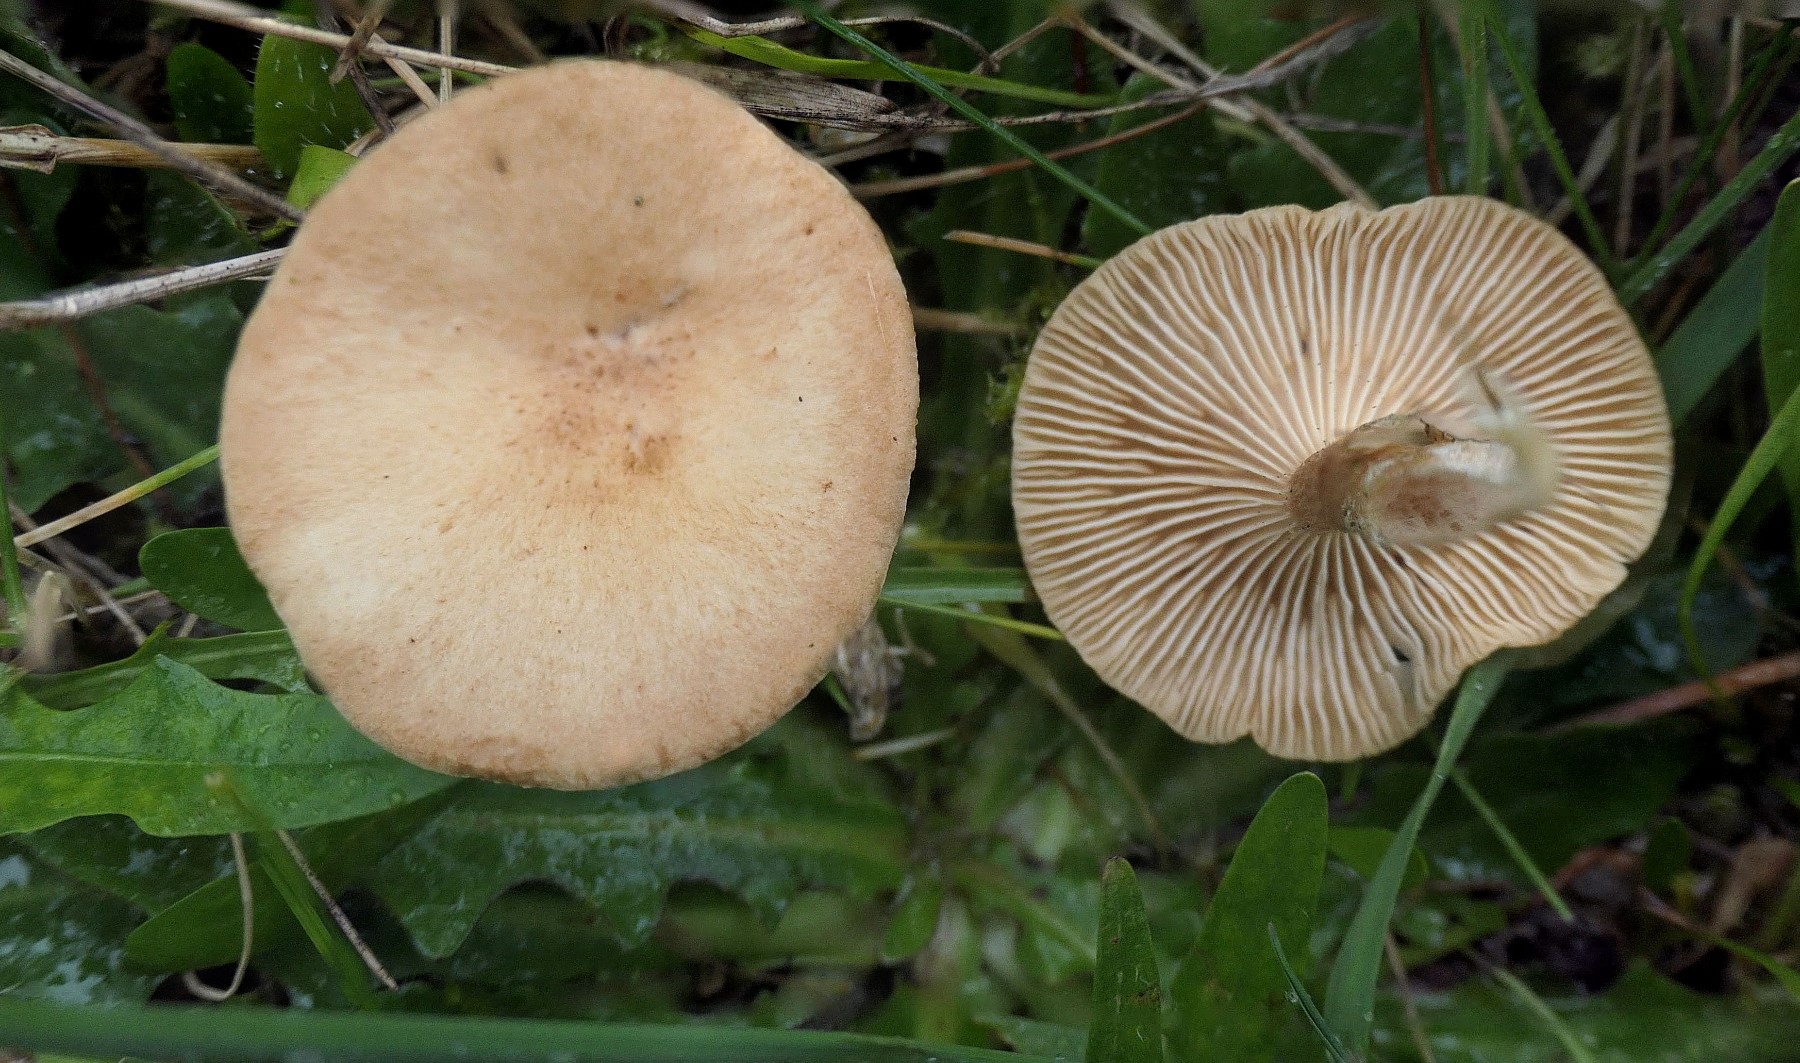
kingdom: Fungi
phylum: Basidiomycota
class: Agaricomycetes
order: Agaricales
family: Tricholomataceae
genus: Infundibulicybe
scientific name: Infundibulicybe squamulosa
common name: småskællet tragthat
